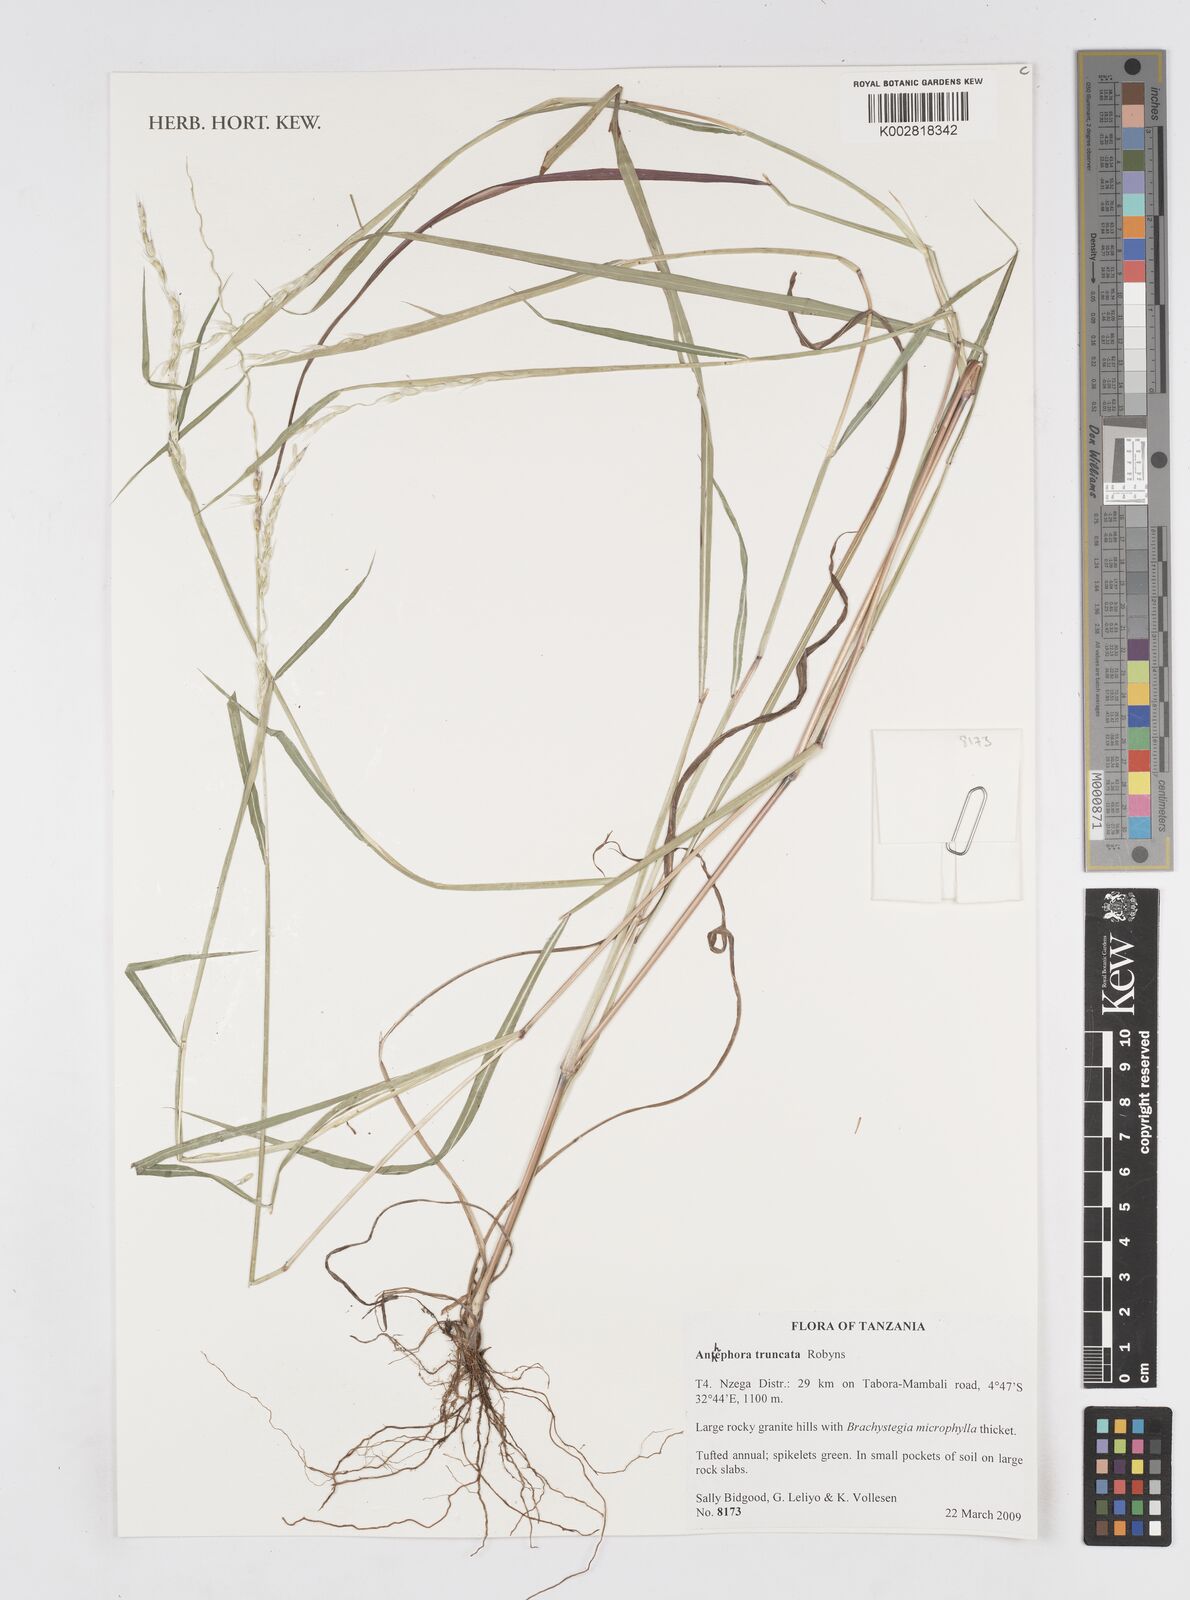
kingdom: Plantae
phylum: Tracheophyta
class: Liliopsida
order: Poales
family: Poaceae
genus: Anthephora
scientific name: Anthephora truncata
